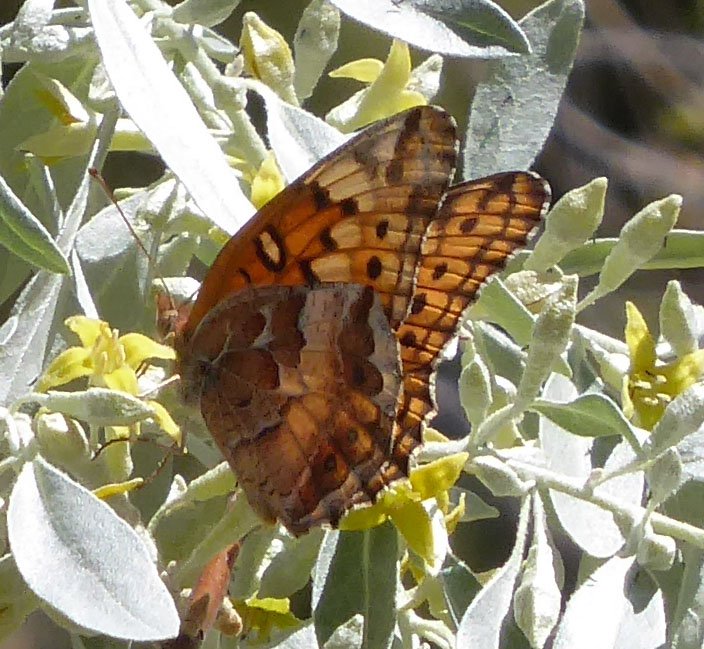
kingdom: Animalia
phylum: Arthropoda
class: Insecta
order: Lepidoptera
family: Nymphalidae
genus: Euptoieta
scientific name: Euptoieta claudia
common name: Variegated Fritillary
